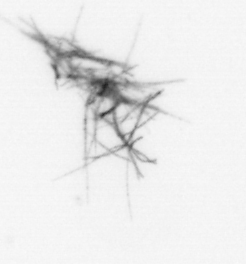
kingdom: Bacteria
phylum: Cyanobacteria
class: Cyanobacteriia
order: Cyanobacteriales
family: Microcoleaceae
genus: Trichodesmium
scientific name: Trichodesmium
